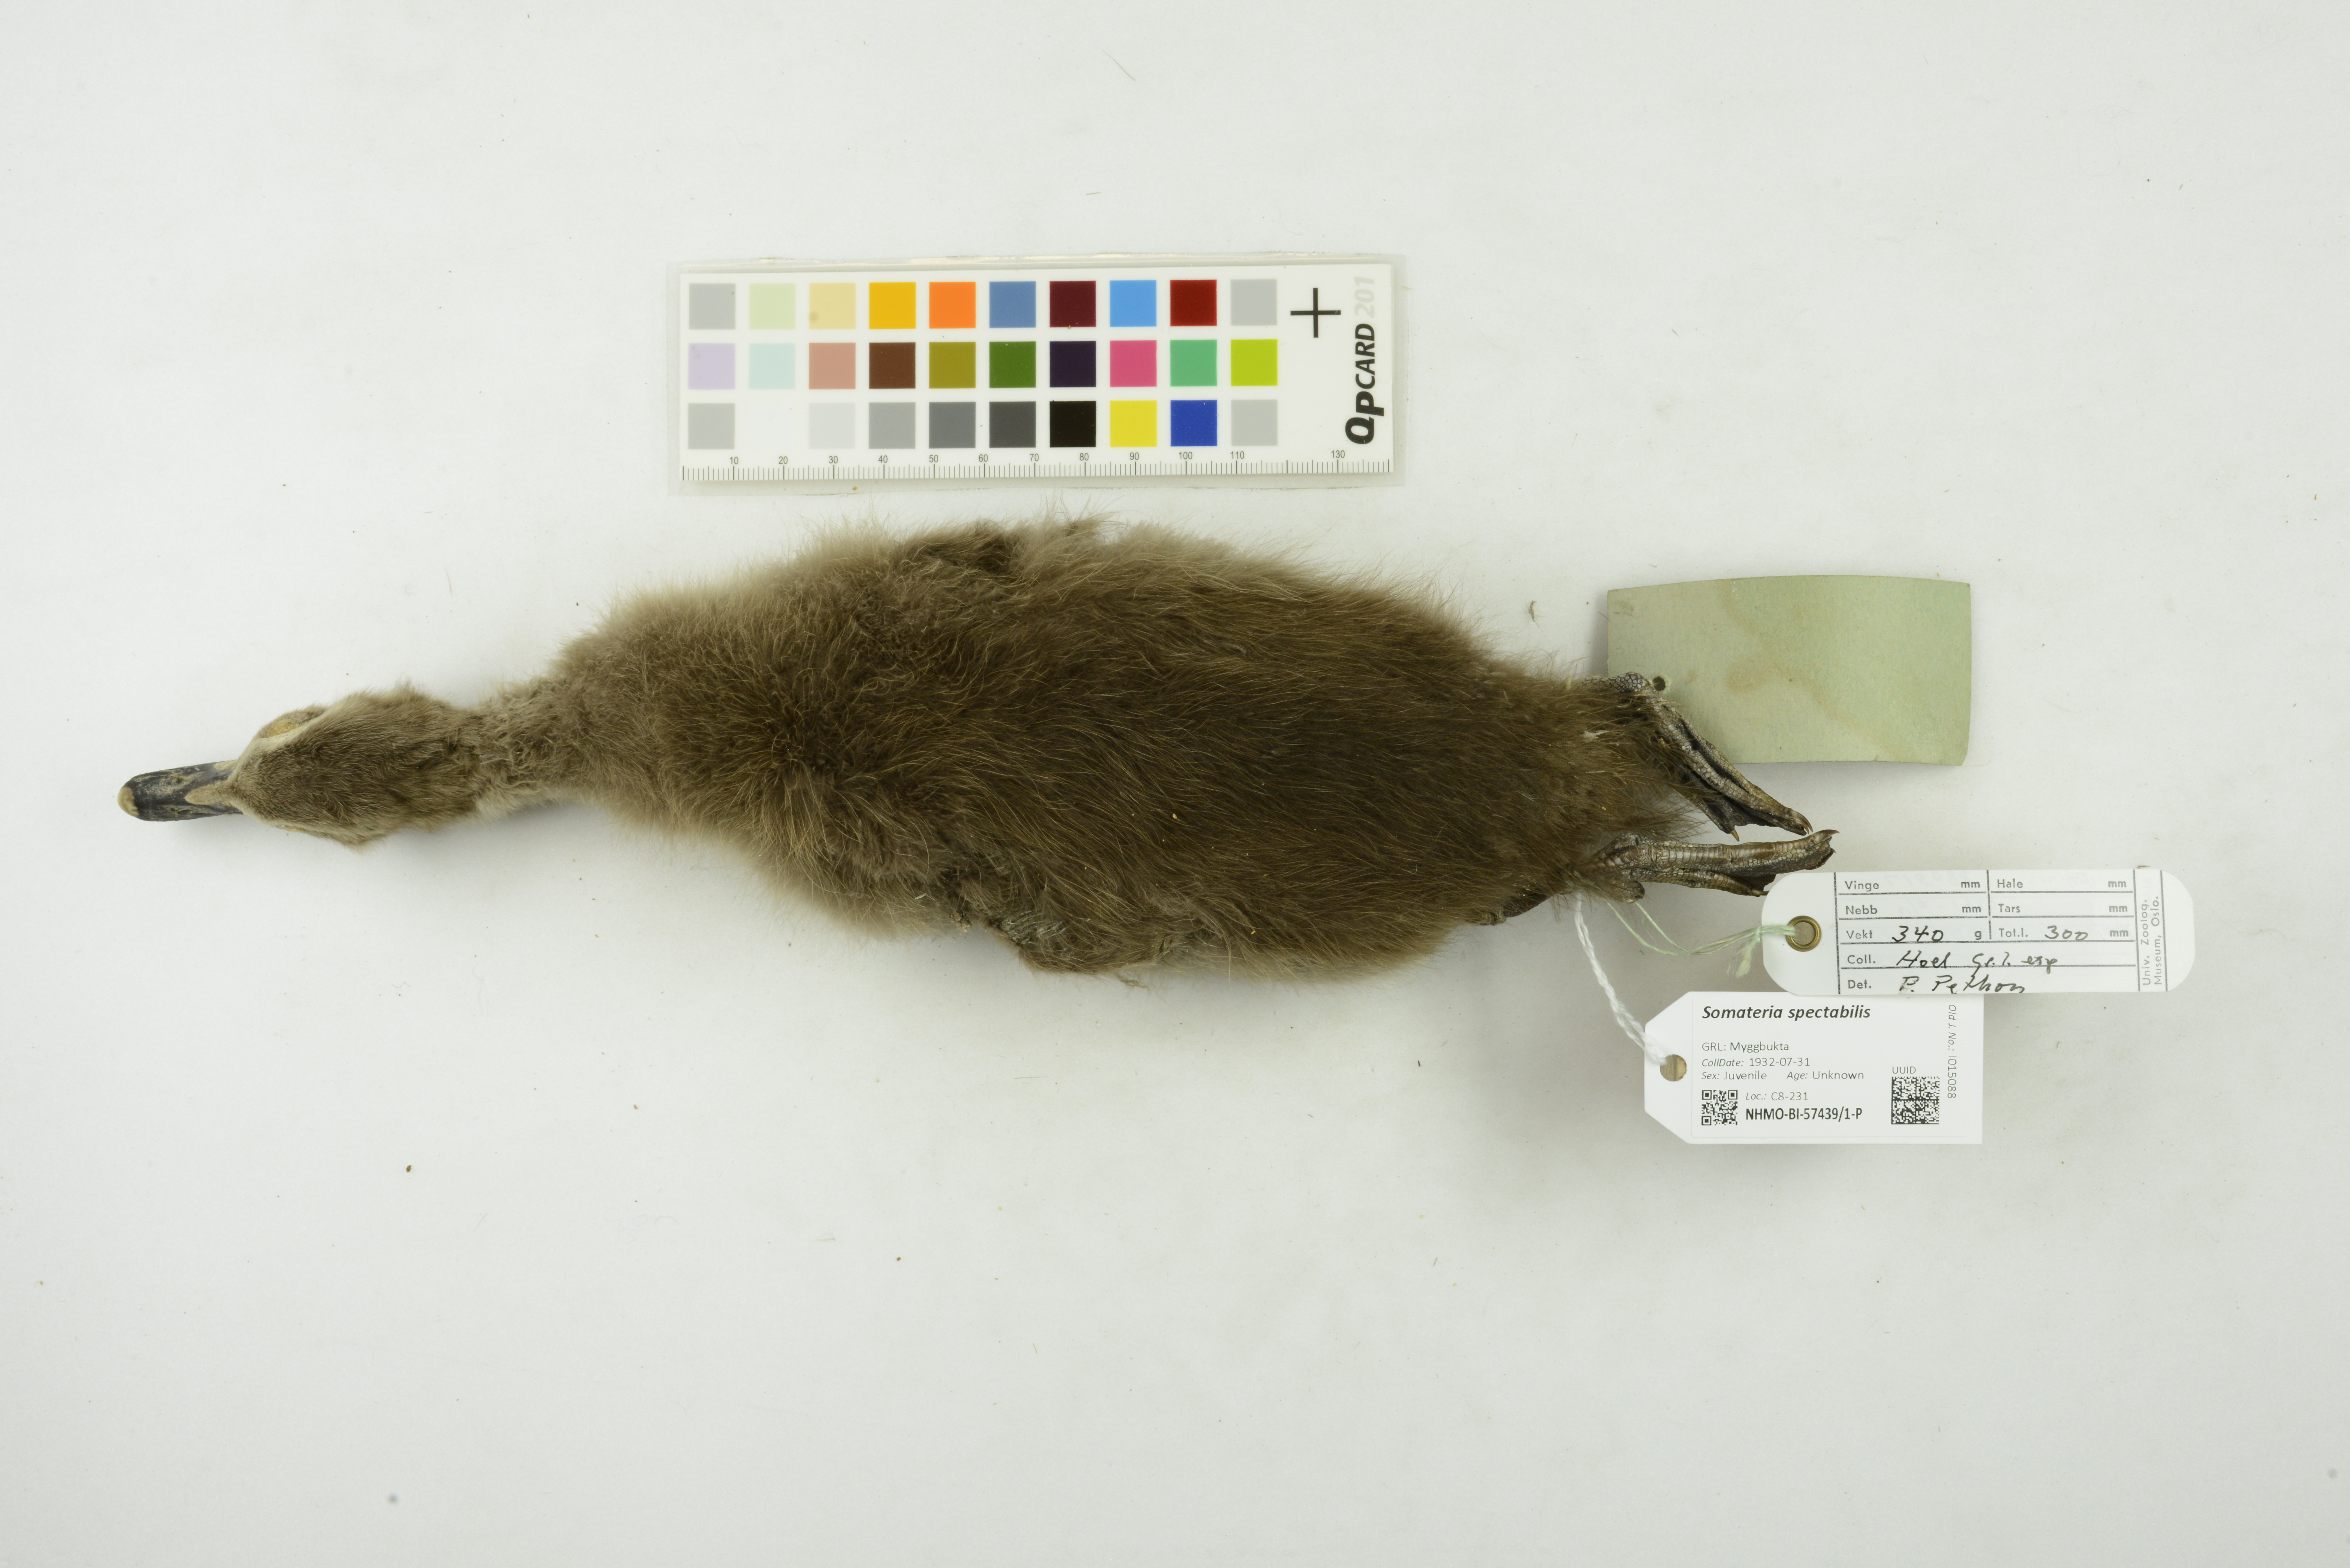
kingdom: Animalia
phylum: Chordata
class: Aves
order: Anseriformes
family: Anatidae
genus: Somateria
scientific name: Somateria spectabilis
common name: King eider
